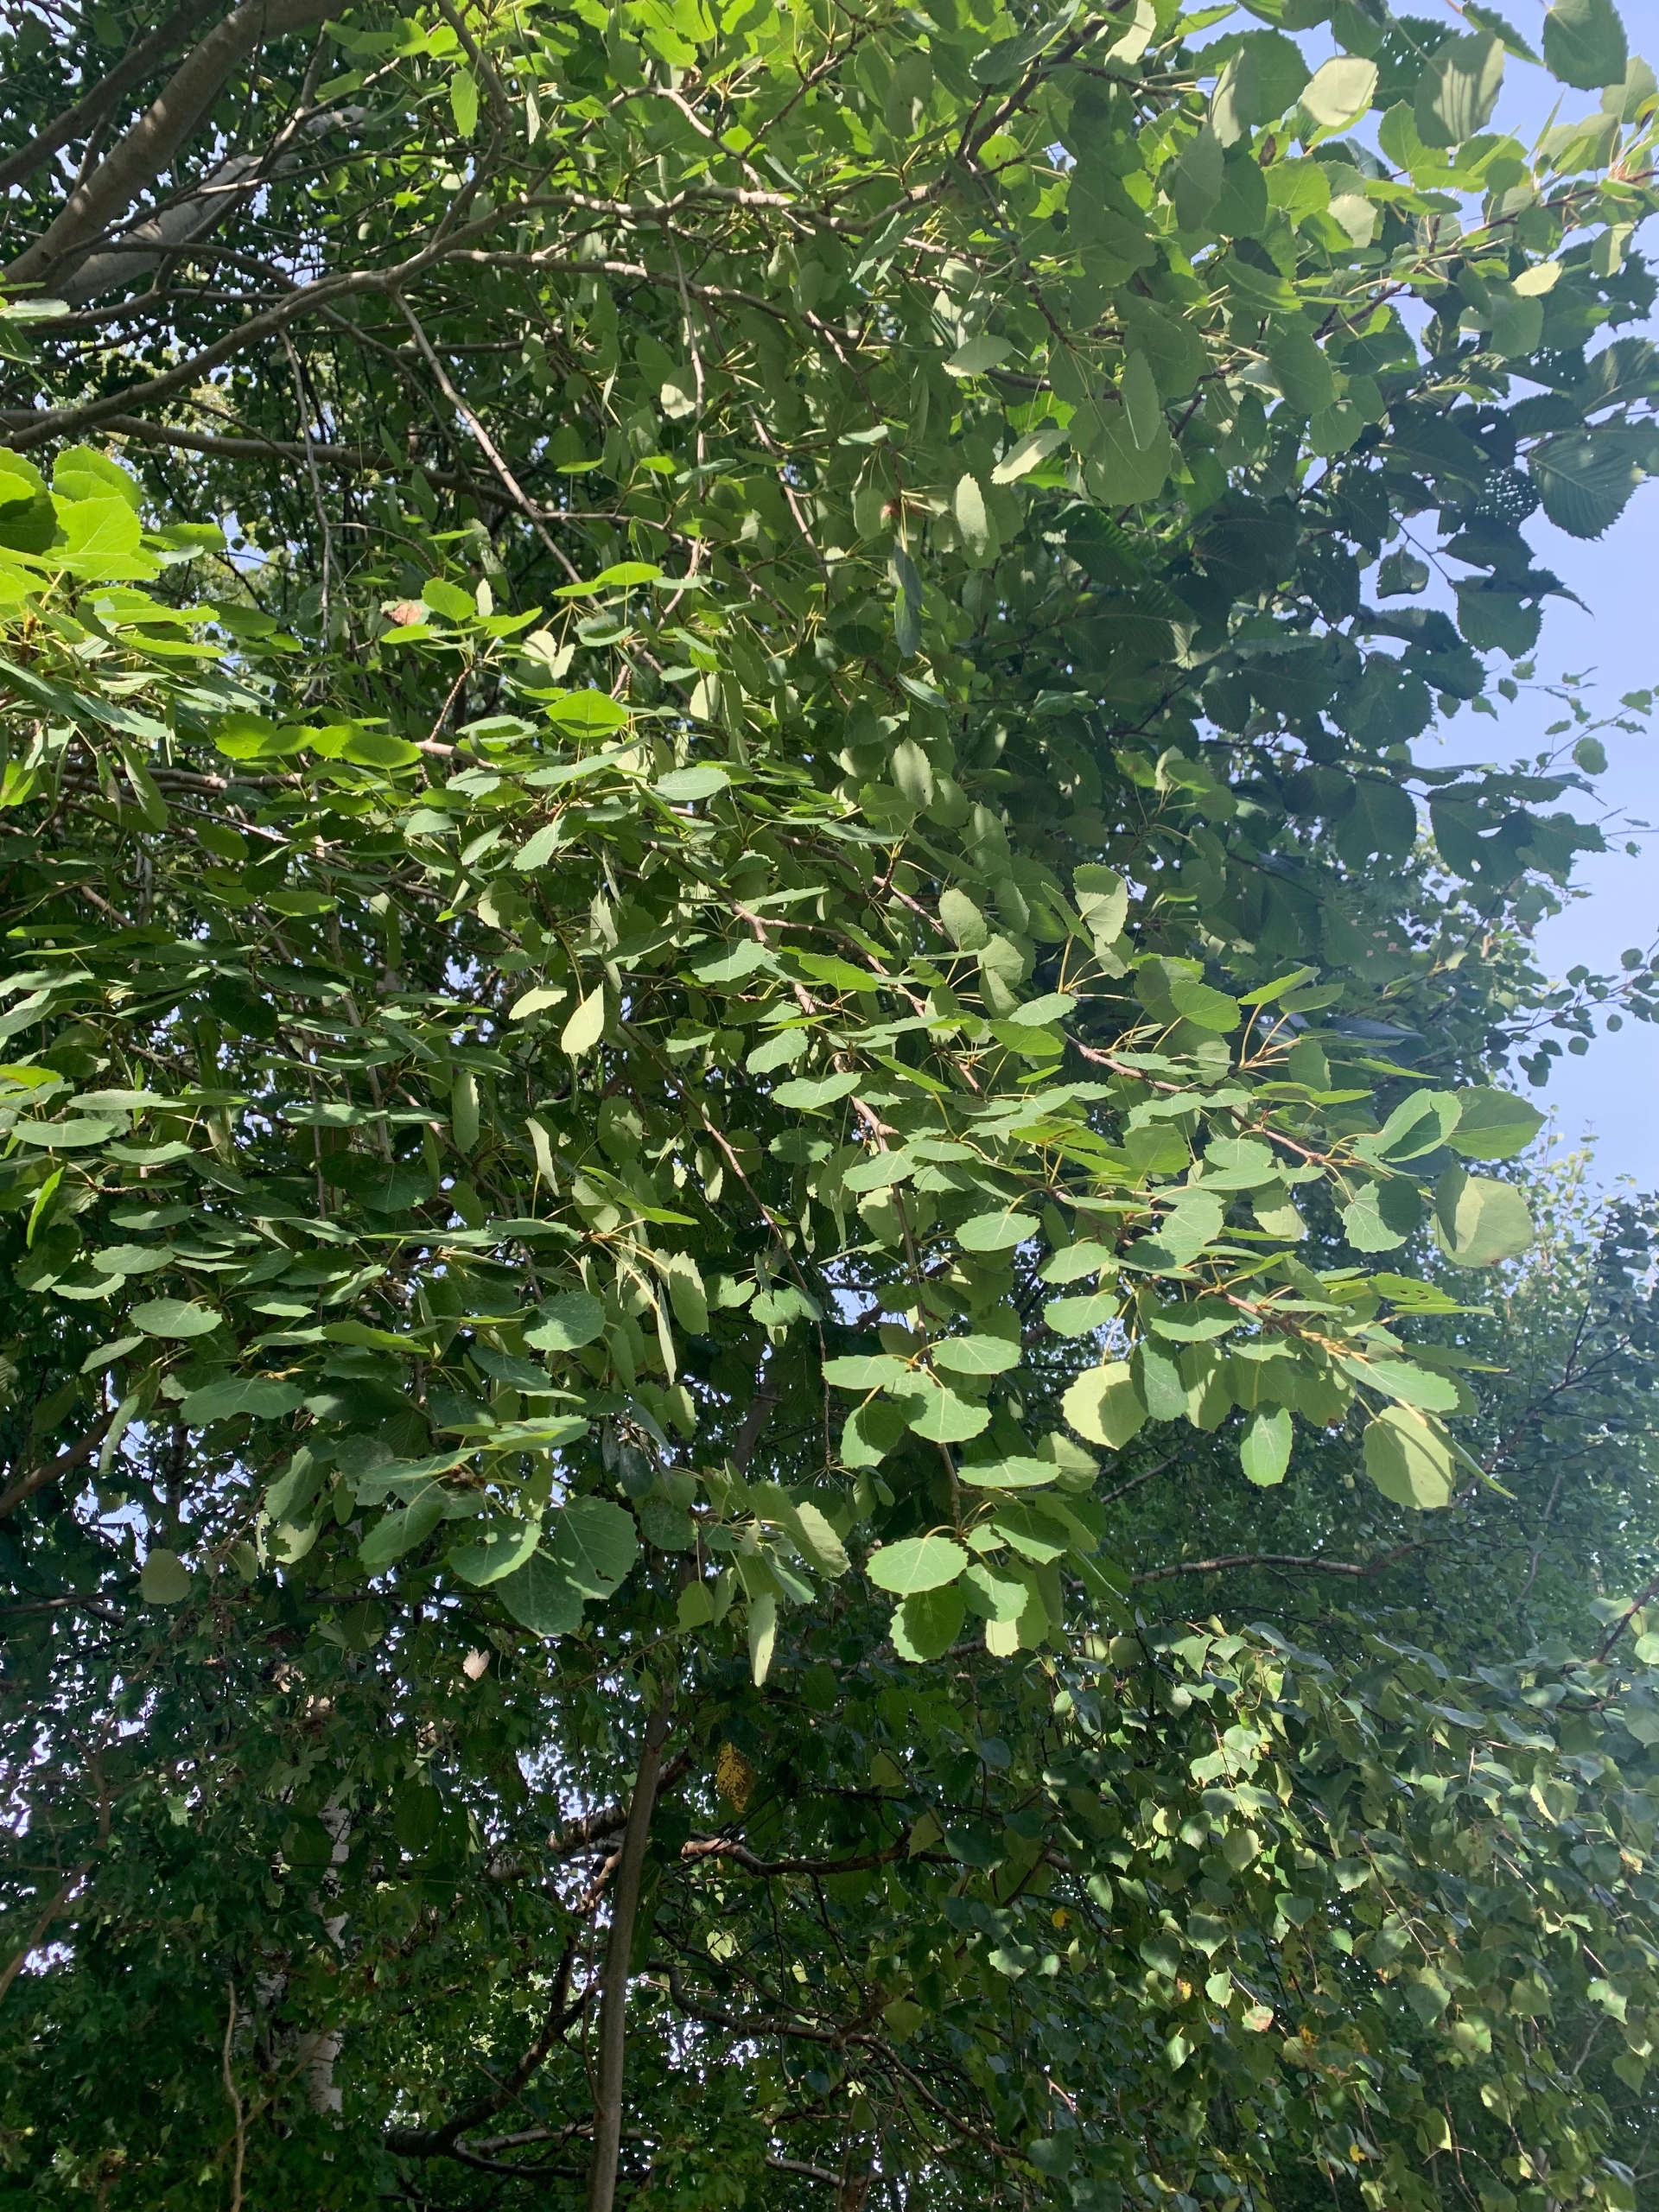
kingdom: Plantae
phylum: Tracheophyta
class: Magnoliopsida
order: Malpighiales
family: Salicaceae
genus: Populus
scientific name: Populus tremula
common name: Bævreasp
